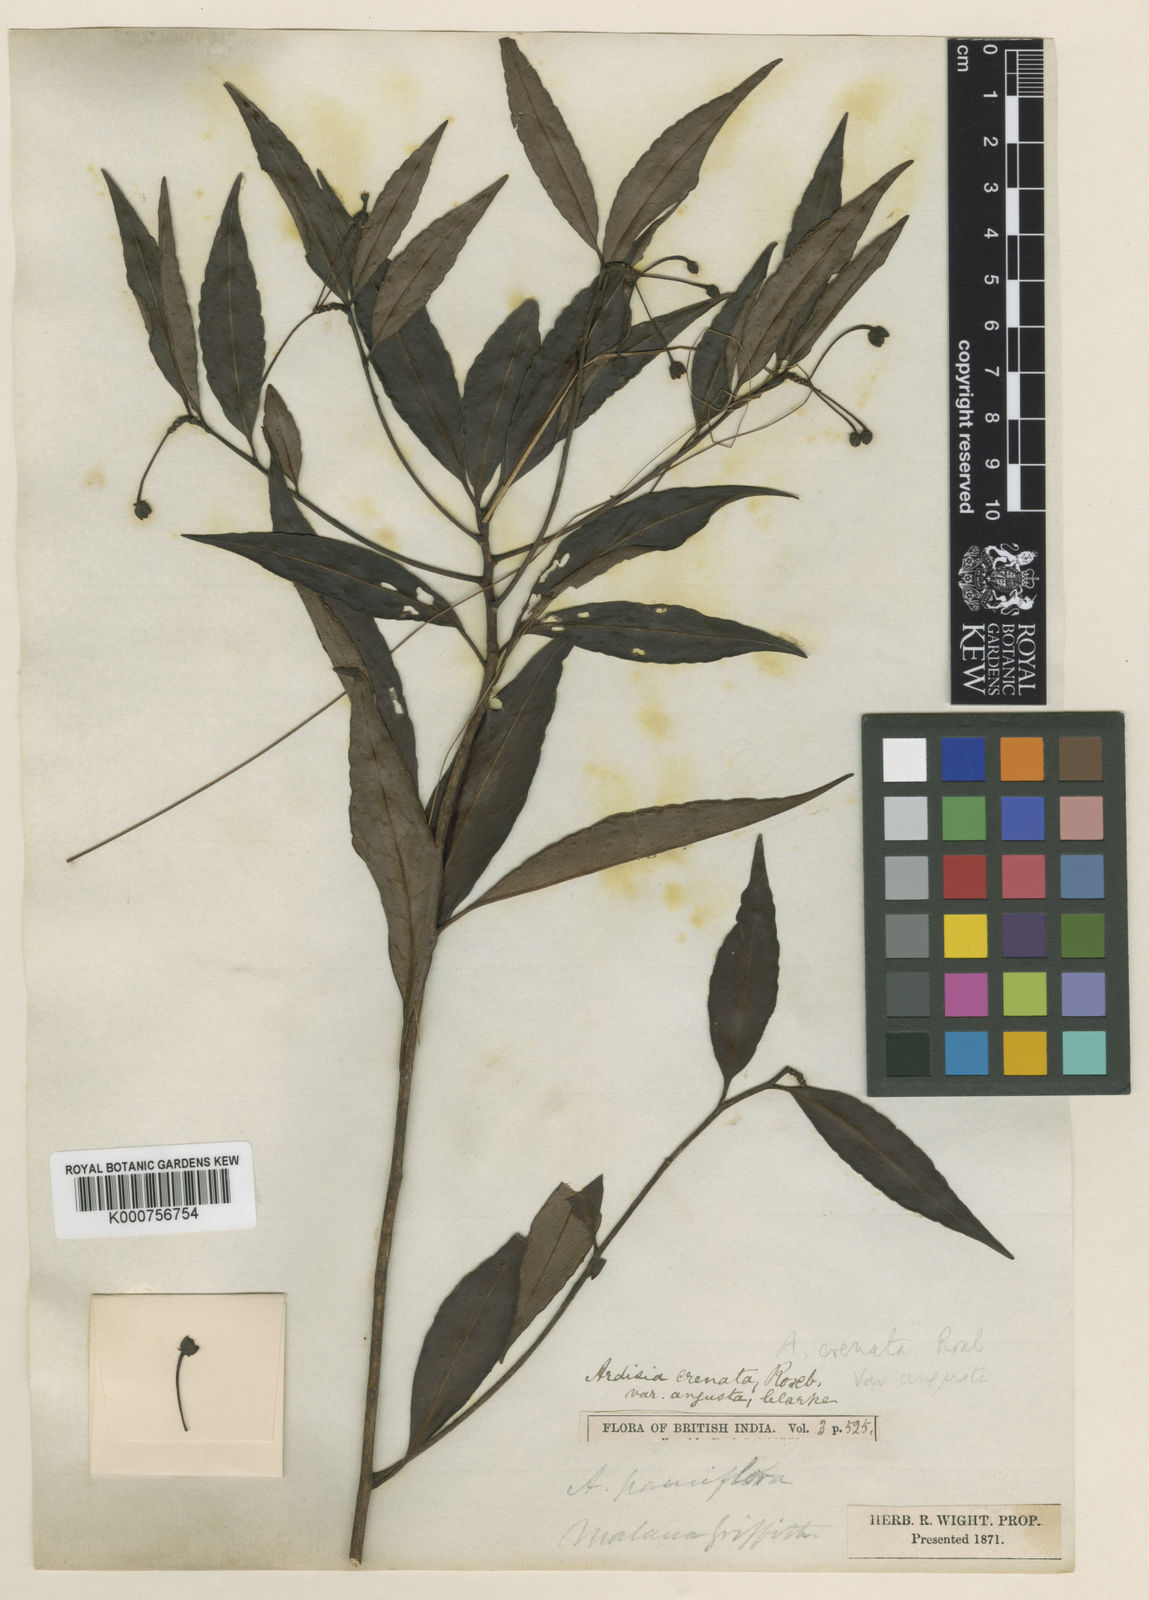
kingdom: Plantae
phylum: Tracheophyta
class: Magnoliopsida
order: Ericales
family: Primulaceae
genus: Ardisia
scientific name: Ardisia
